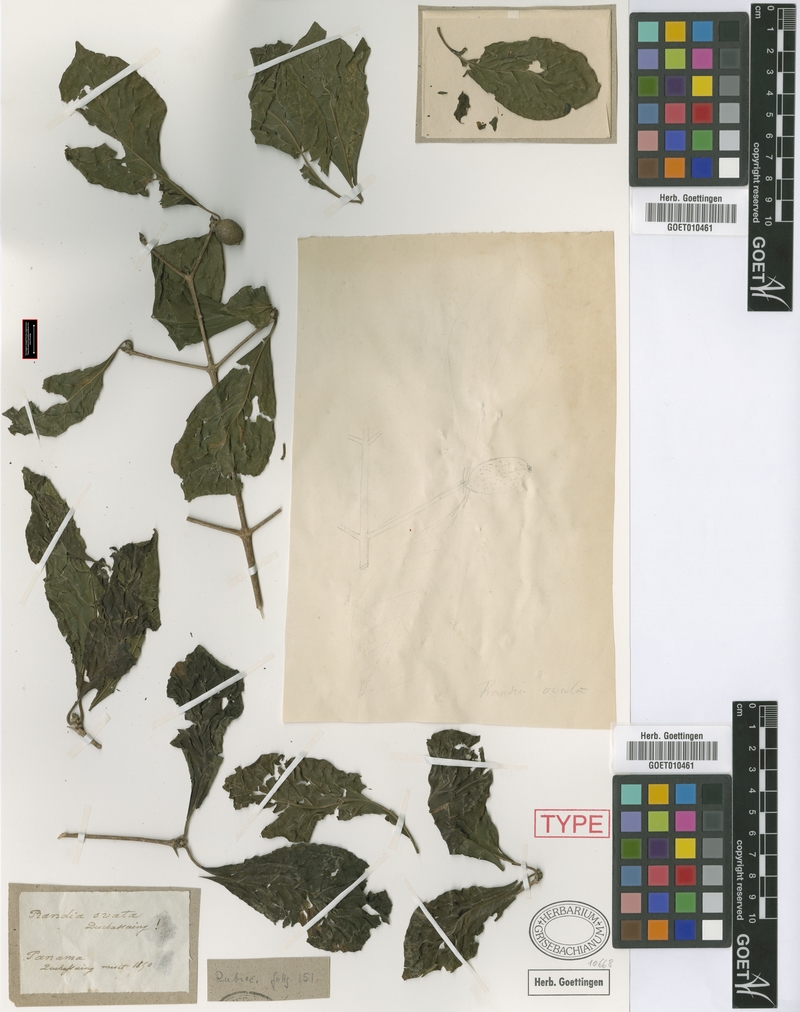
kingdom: Plantae
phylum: Tracheophyta
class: Magnoliopsida
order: Gentianales
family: Rubiaceae
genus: Randia
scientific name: Randia armata
